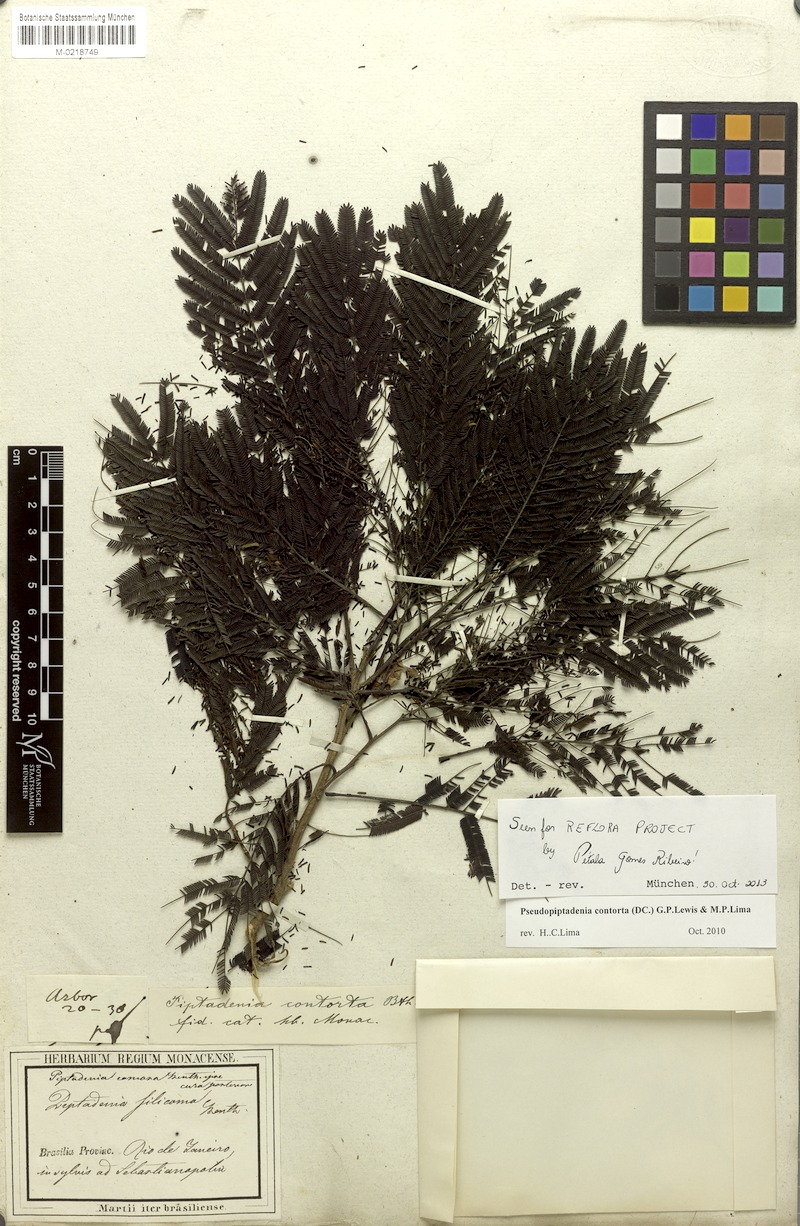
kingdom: Plantae
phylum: Tracheophyta
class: Magnoliopsida
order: Fabales
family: Fabaceae
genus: Pseudopiptadenia
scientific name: Pseudopiptadenia contorta
